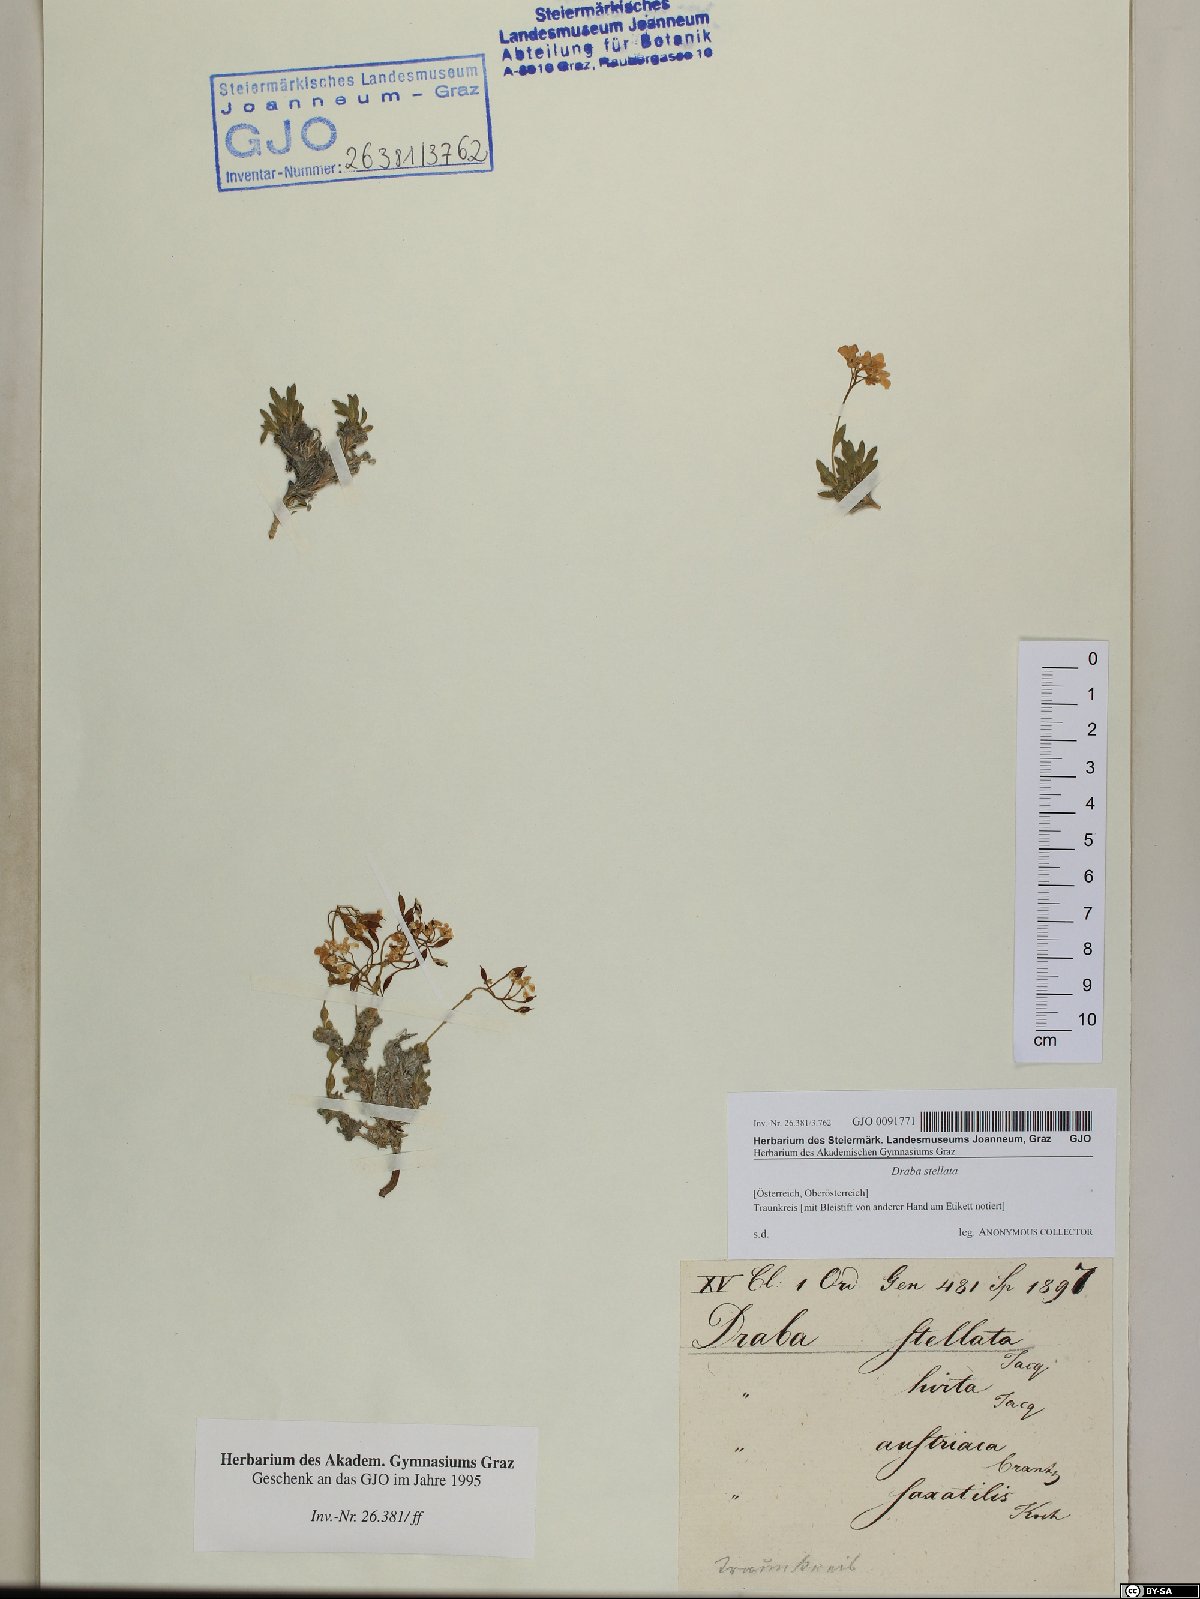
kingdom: Plantae
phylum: Tracheophyta
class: Magnoliopsida
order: Brassicales
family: Brassicaceae
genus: Draba
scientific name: Draba stellata
